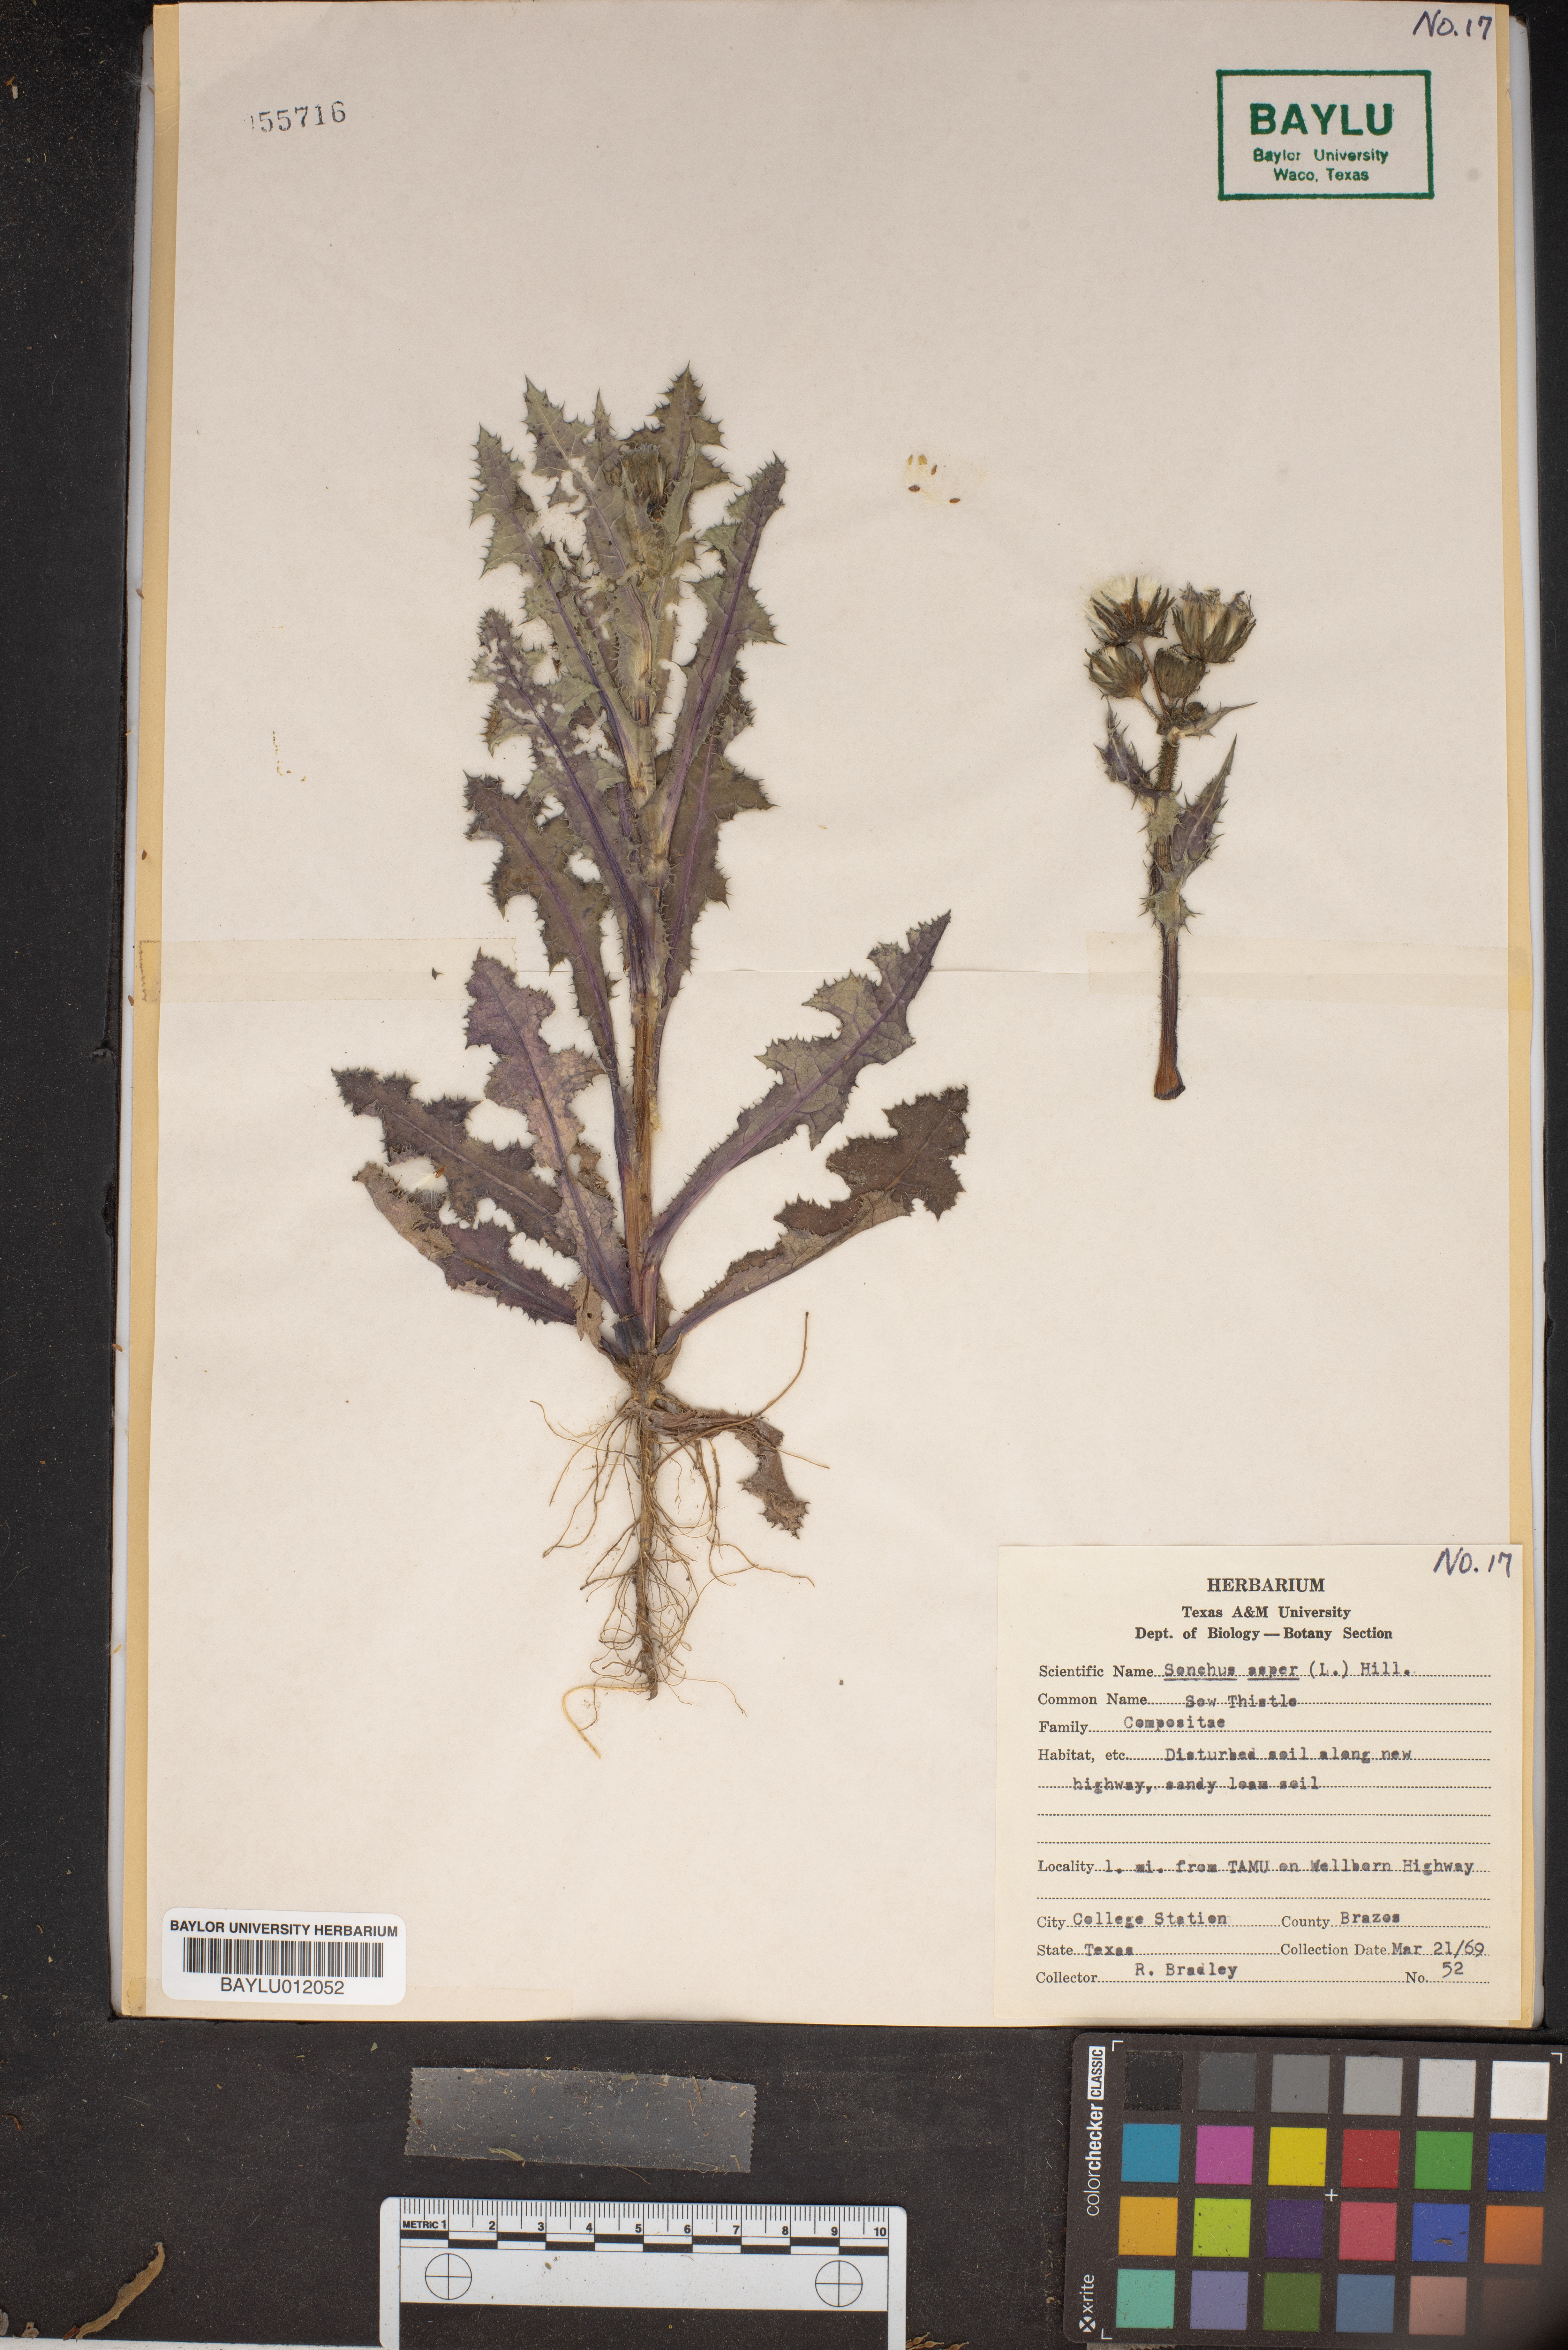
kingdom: Plantae
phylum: Tracheophyta
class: Magnoliopsida
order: Asterales
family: Asteraceae
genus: Sonchus
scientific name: Sonchus asper
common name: Prickly sow-thistle
